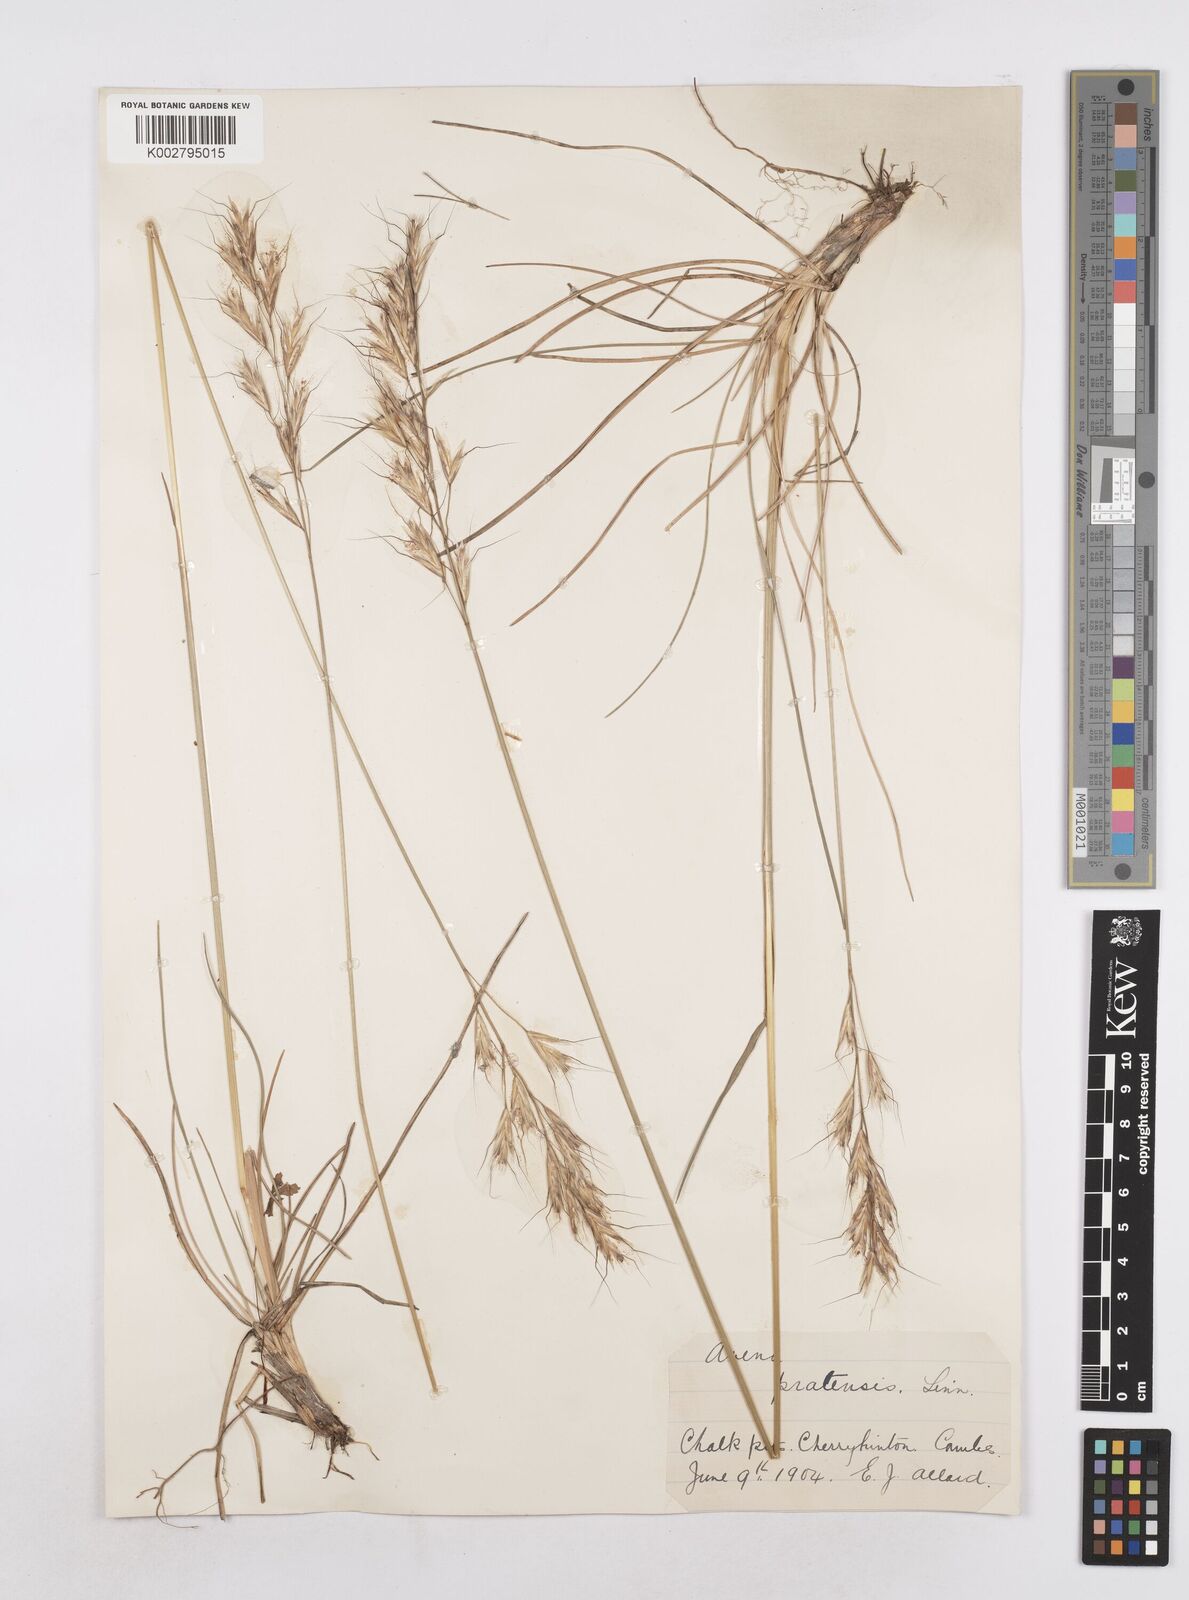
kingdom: Plantae
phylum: Tracheophyta
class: Liliopsida
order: Poales
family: Poaceae
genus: Helictochloa
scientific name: Helictochloa pratensis
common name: Meadow oat grass
